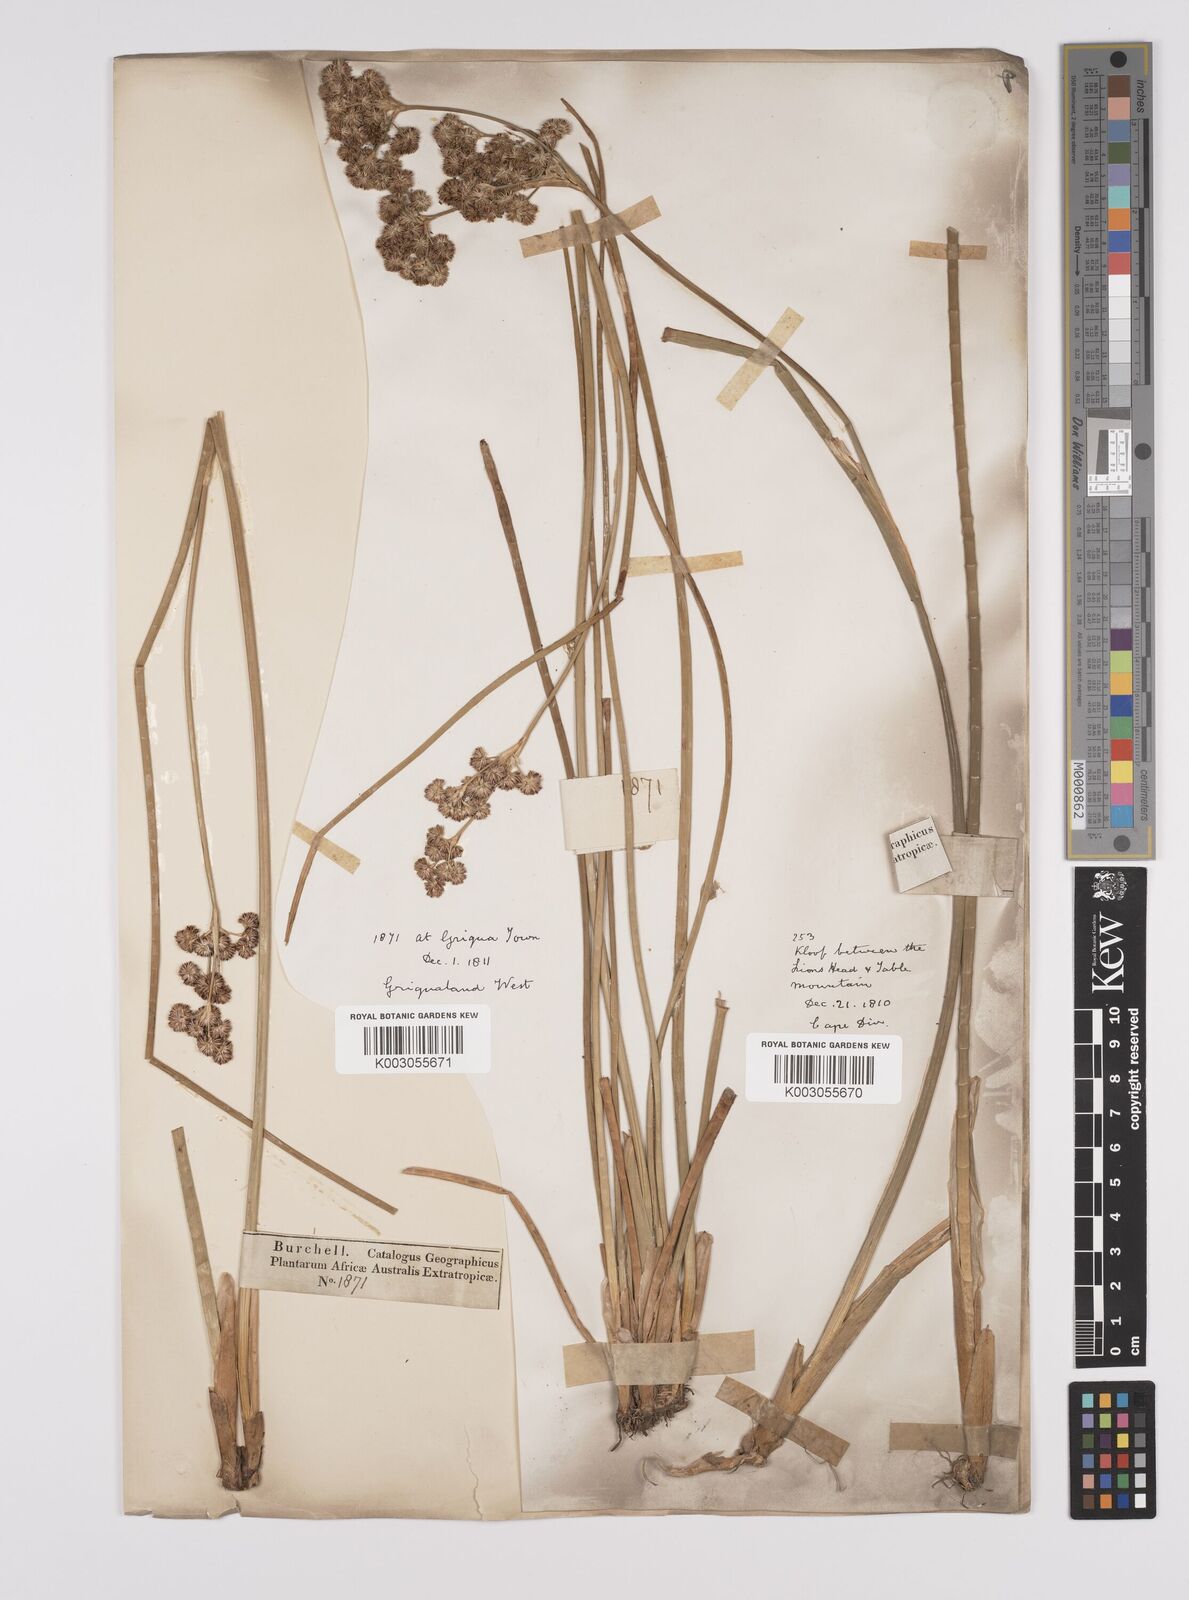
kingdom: Plantae
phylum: Tracheophyta
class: Liliopsida
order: Poales
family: Juncaceae
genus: Juncus
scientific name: Juncus punctorius
